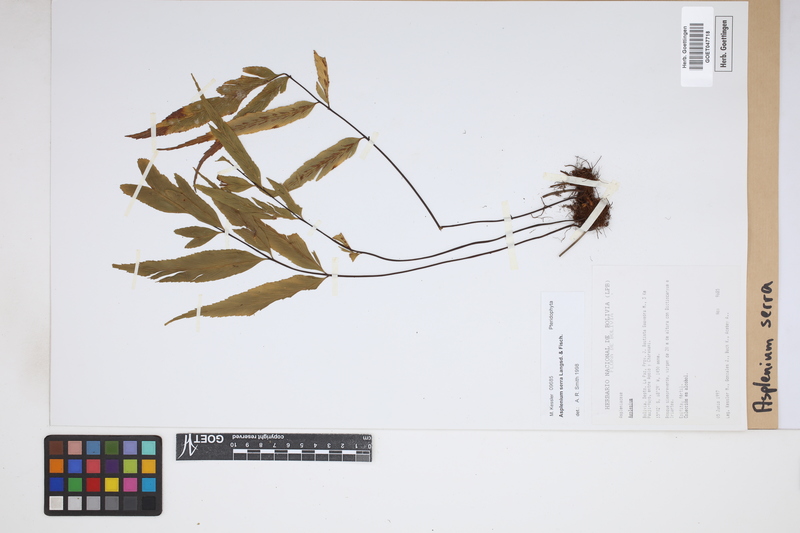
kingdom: Plantae
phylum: Tracheophyta
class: Polypodiopsida
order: Polypodiales
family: Aspleniaceae
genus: Asplenium
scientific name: Asplenium serra
